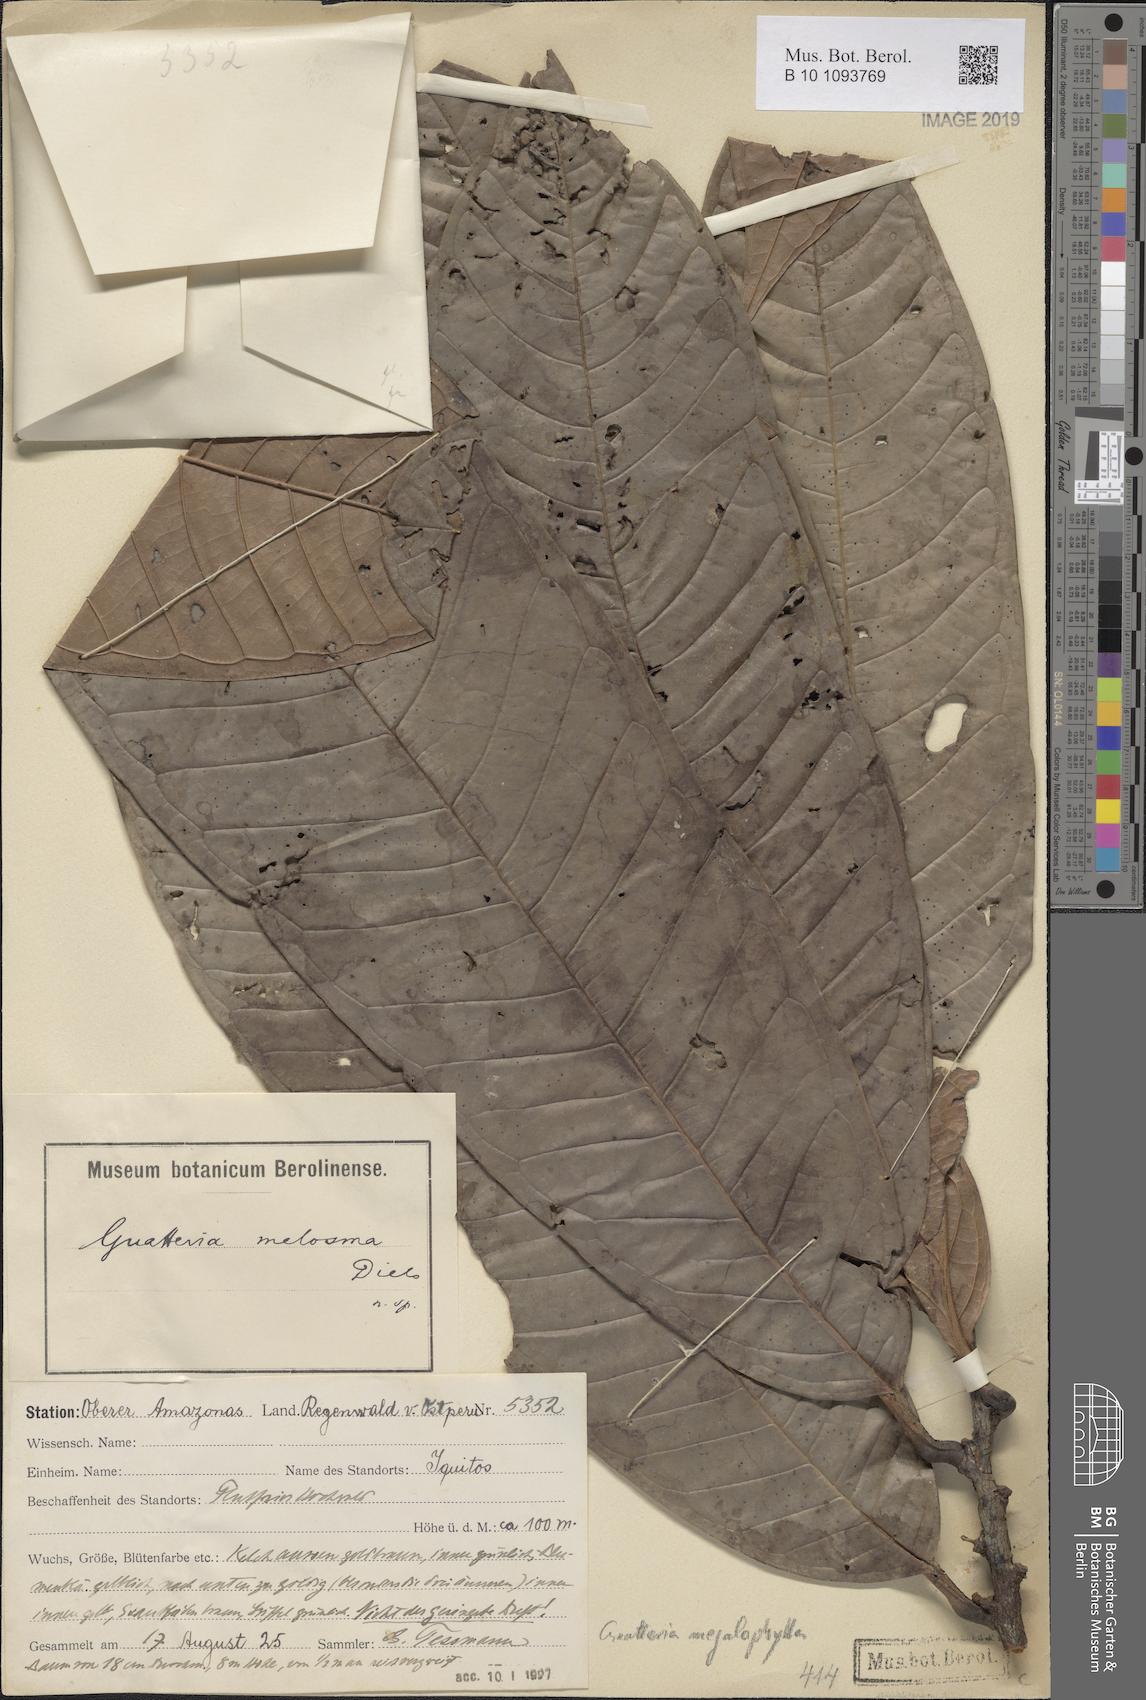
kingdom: Plantae
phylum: Tracheophyta
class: Magnoliopsida
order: Magnoliales
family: Annonaceae
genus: Guatteria
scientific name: Guatteria megalophylla
